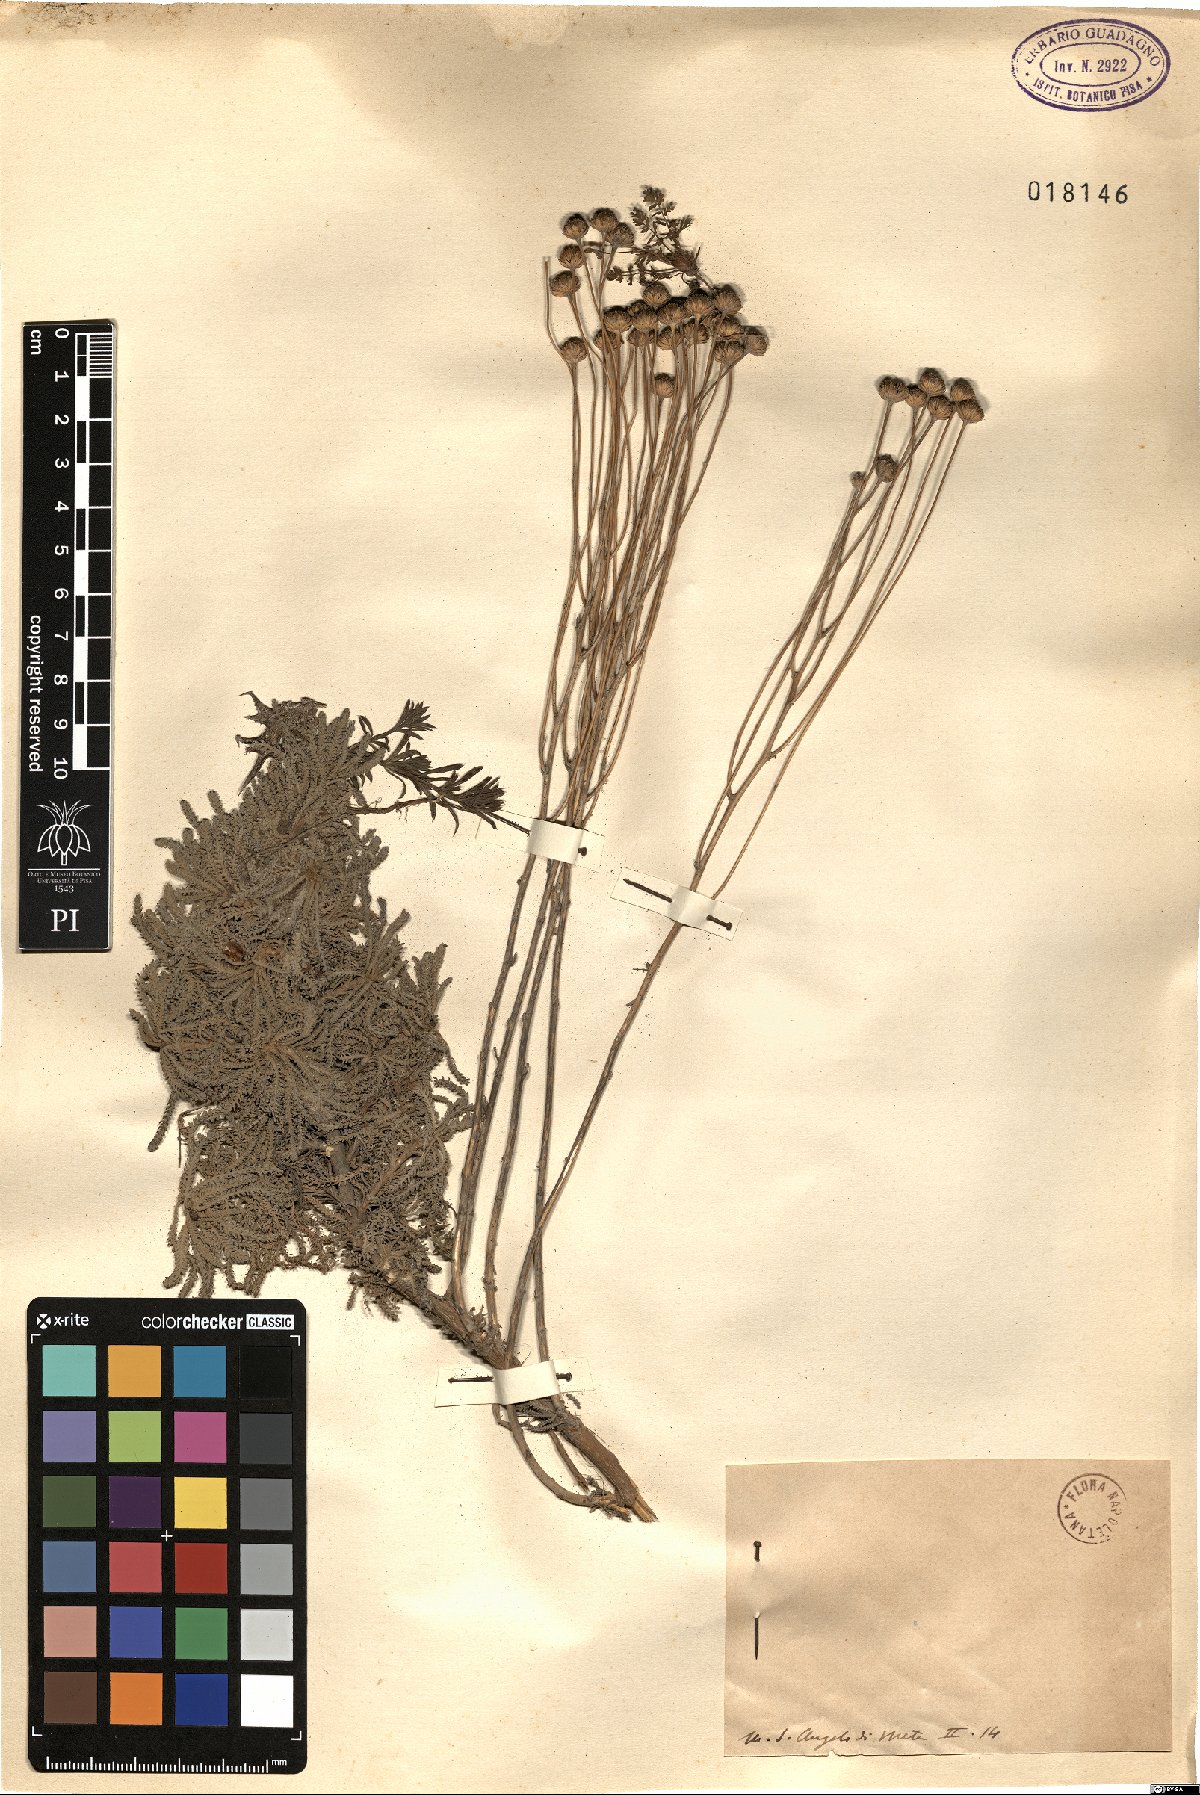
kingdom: Plantae
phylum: Tracheophyta
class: Magnoliopsida
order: Asterales
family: Asteraceae
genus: Santolina
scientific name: Santolina
